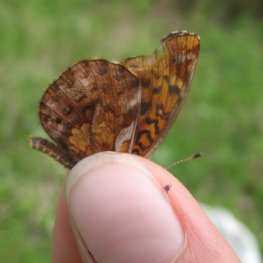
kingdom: Animalia
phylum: Arthropoda
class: Insecta
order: Lepidoptera
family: Nymphalidae
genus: Clossiana
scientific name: Clossiana toddi
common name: Meadow Fritillary
